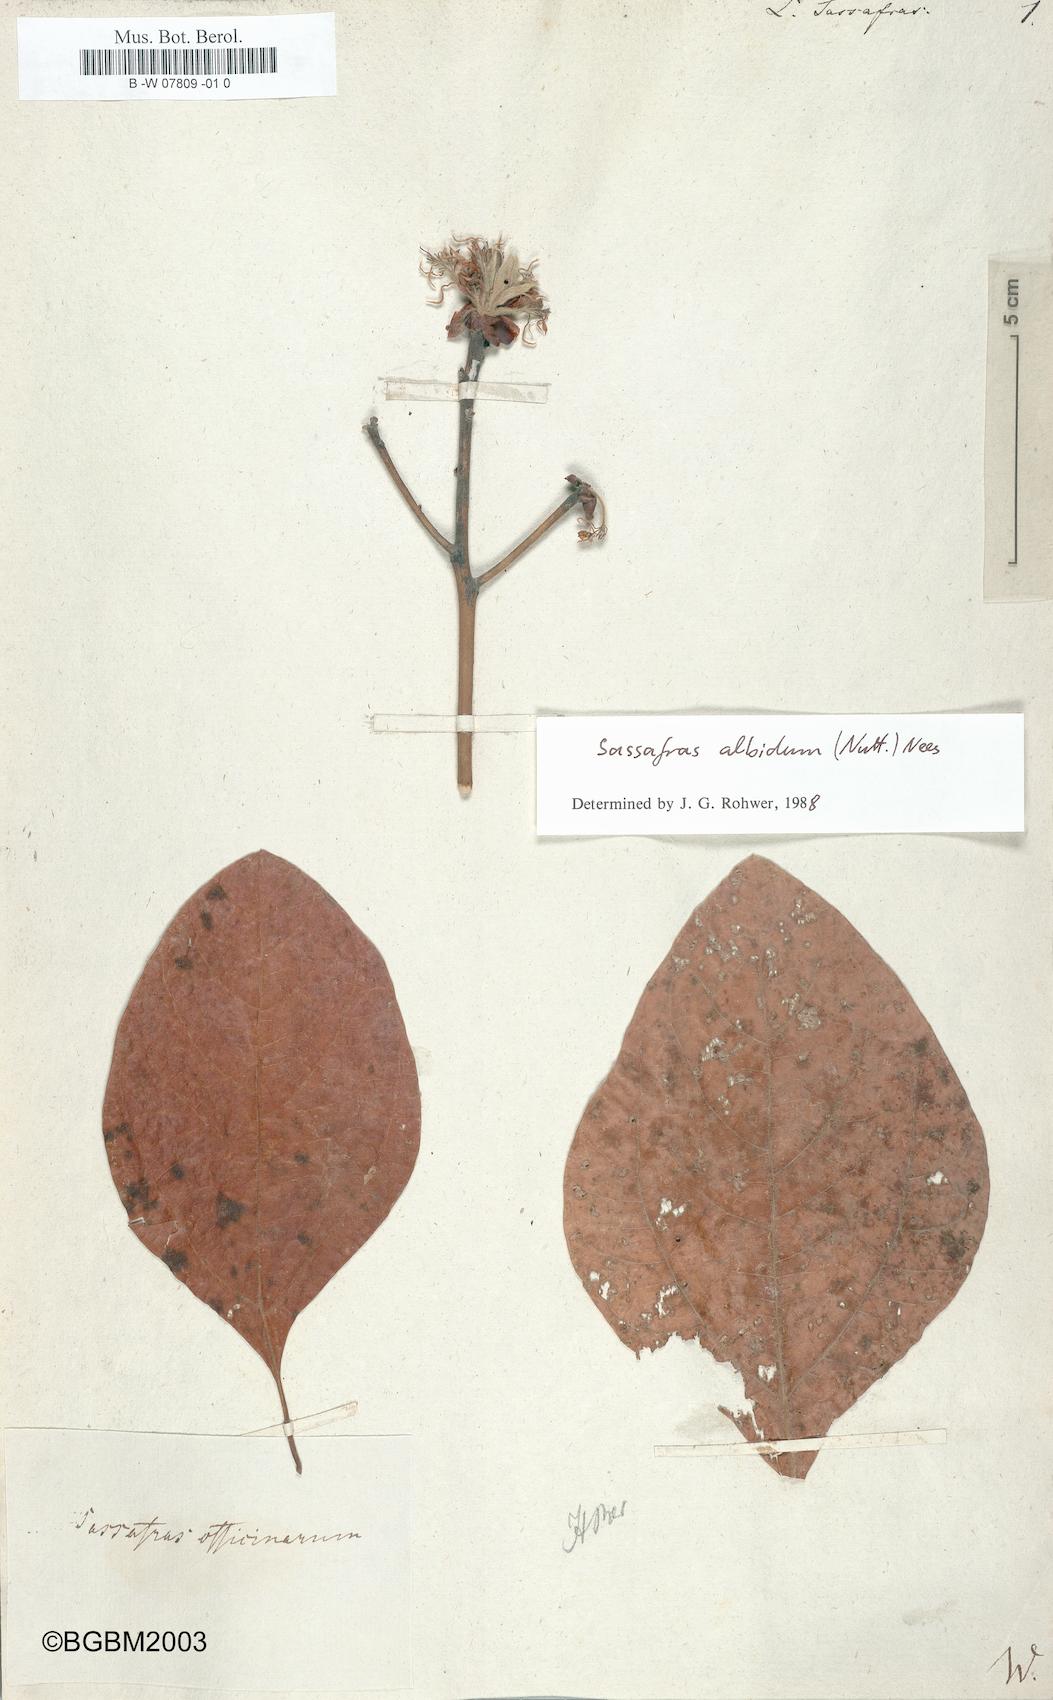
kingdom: Plantae
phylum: Tracheophyta
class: Magnoliopsida
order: Laurales
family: Lauraceae
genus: Sassafras
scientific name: Sassafras albidum
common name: Sassafras
